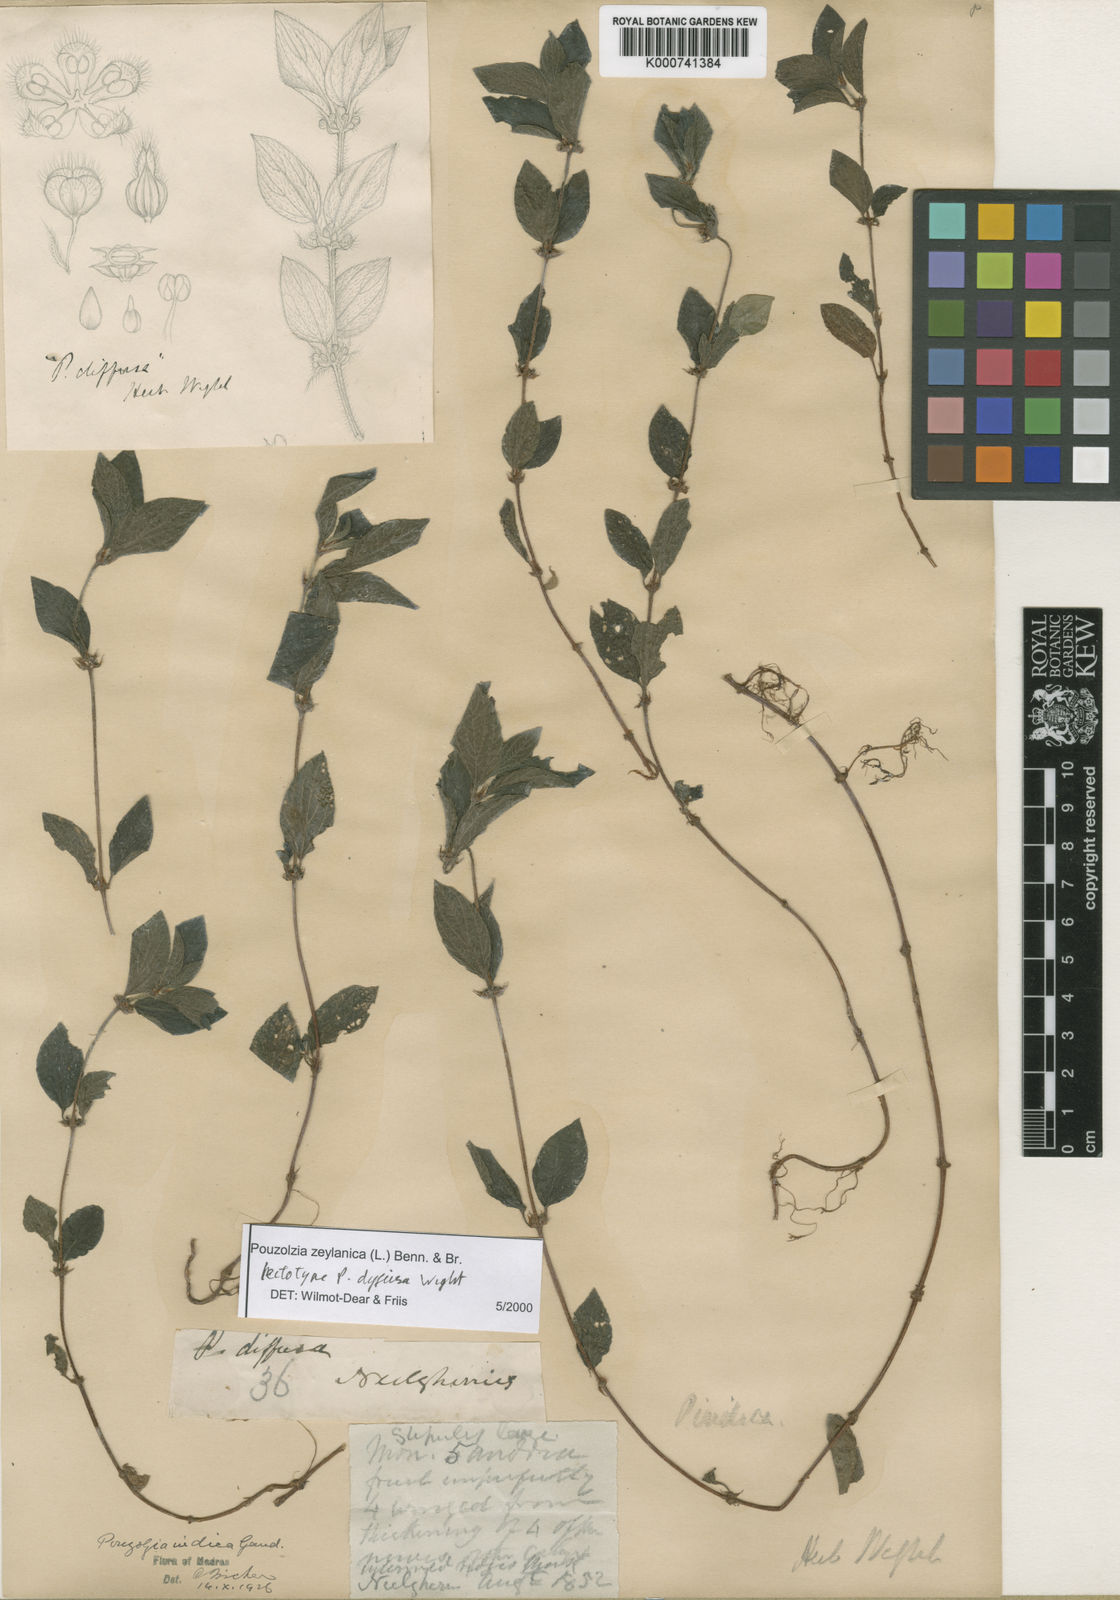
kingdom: Plantae
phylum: Tracheophyta
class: Magnoliopsida
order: Rosales
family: Urticaceae
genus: Pouzolzia
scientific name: Pouzolzia zeylanica
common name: Graceful pouzolzsbush
